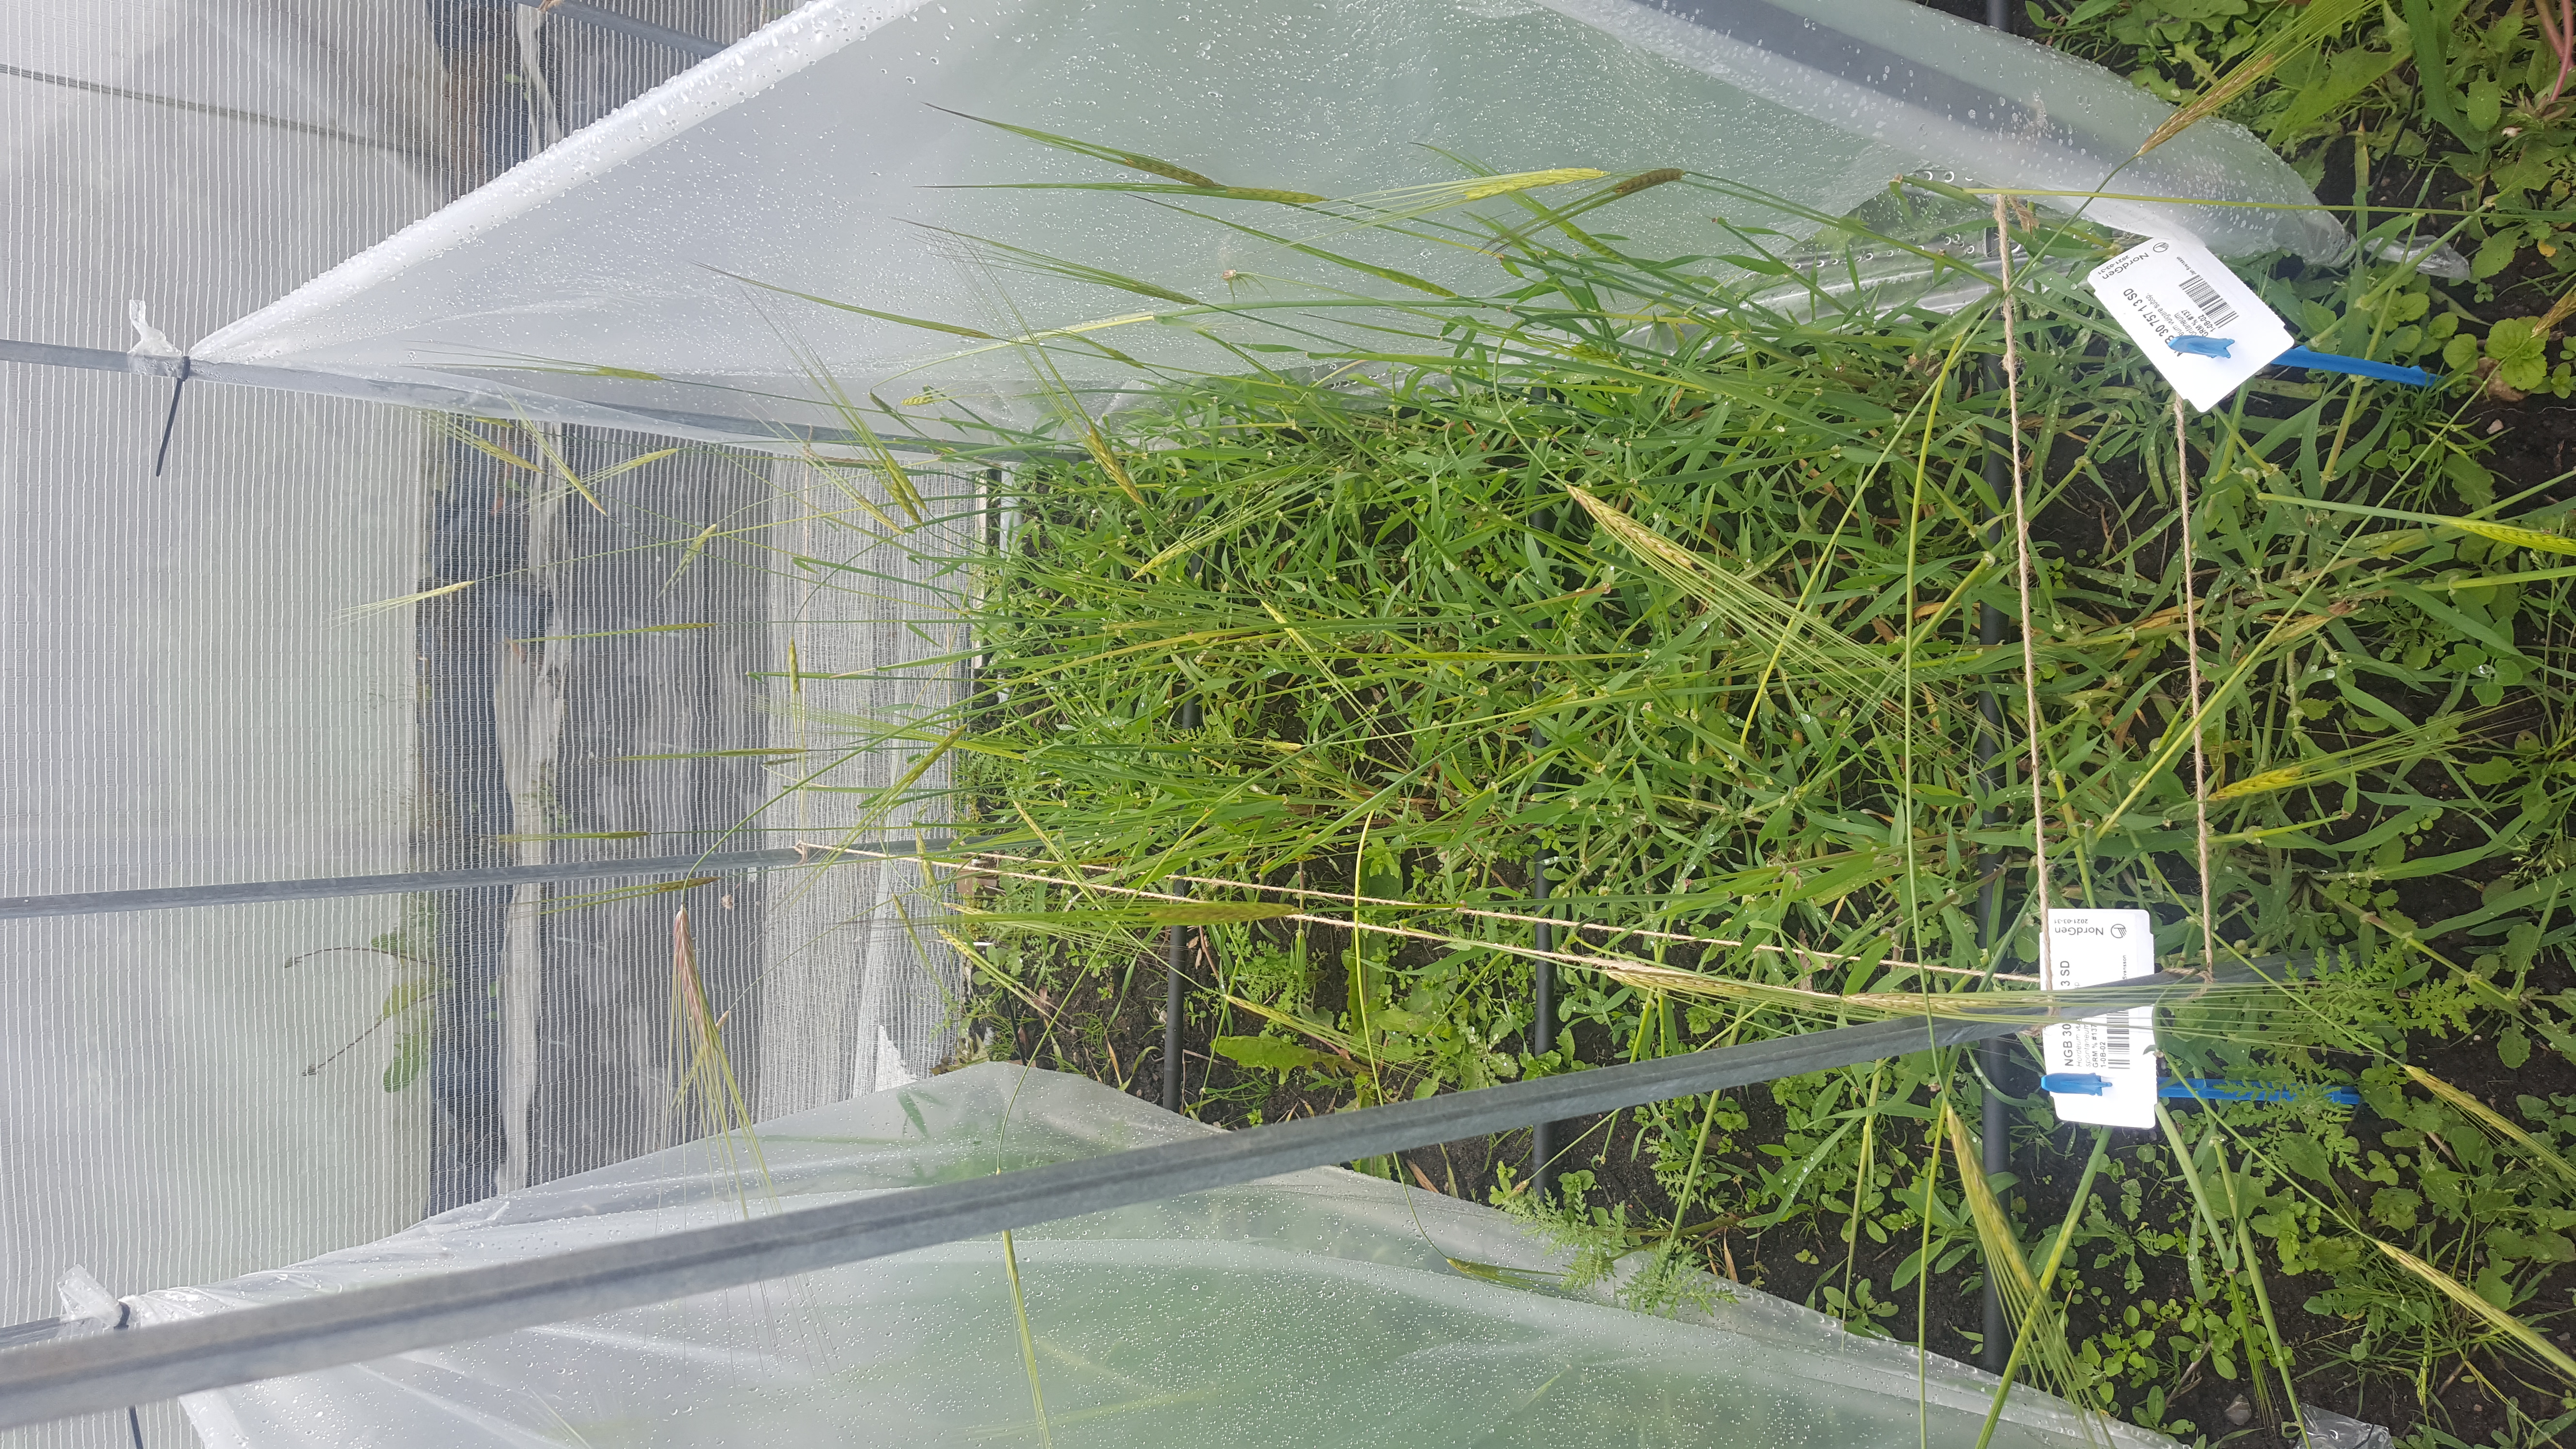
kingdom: Plantae
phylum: Tracheophyta
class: Liliopsida
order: Poales
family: Poaceae
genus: Hordeum
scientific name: Hordeum spontaneum
